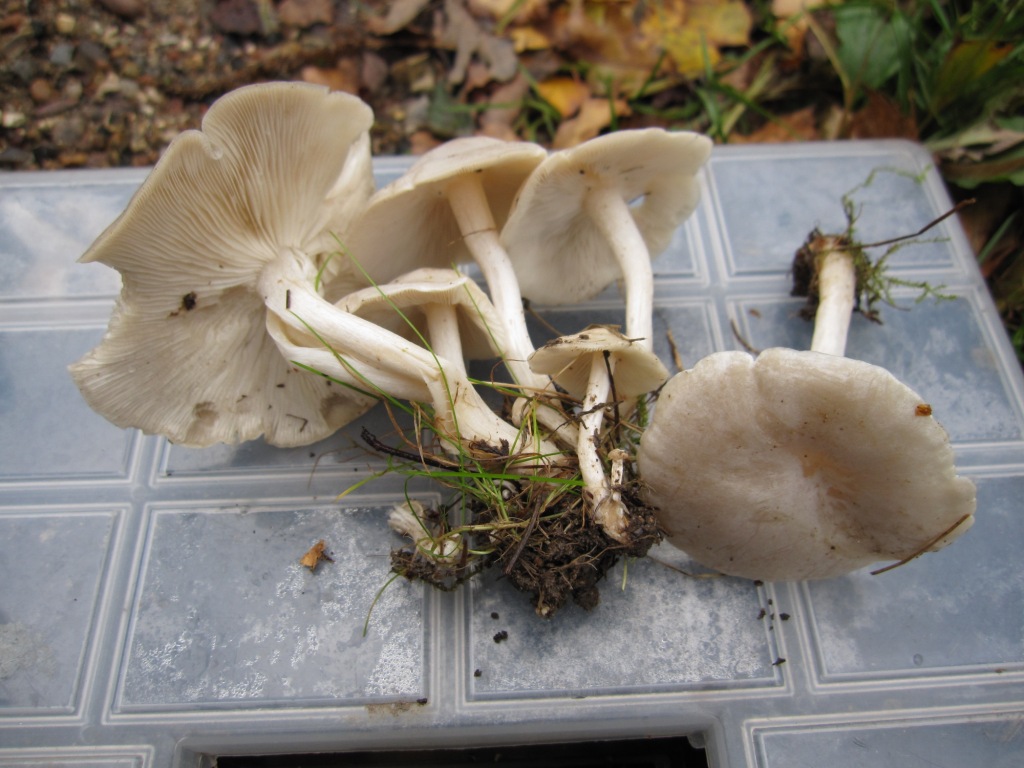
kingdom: Fungi
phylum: Basidiomycota
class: Agaricomycetes
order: Agaricales
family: Tricholomataceae
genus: Leucocybe
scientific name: Leucocybe connata
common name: knippe-tragthat
